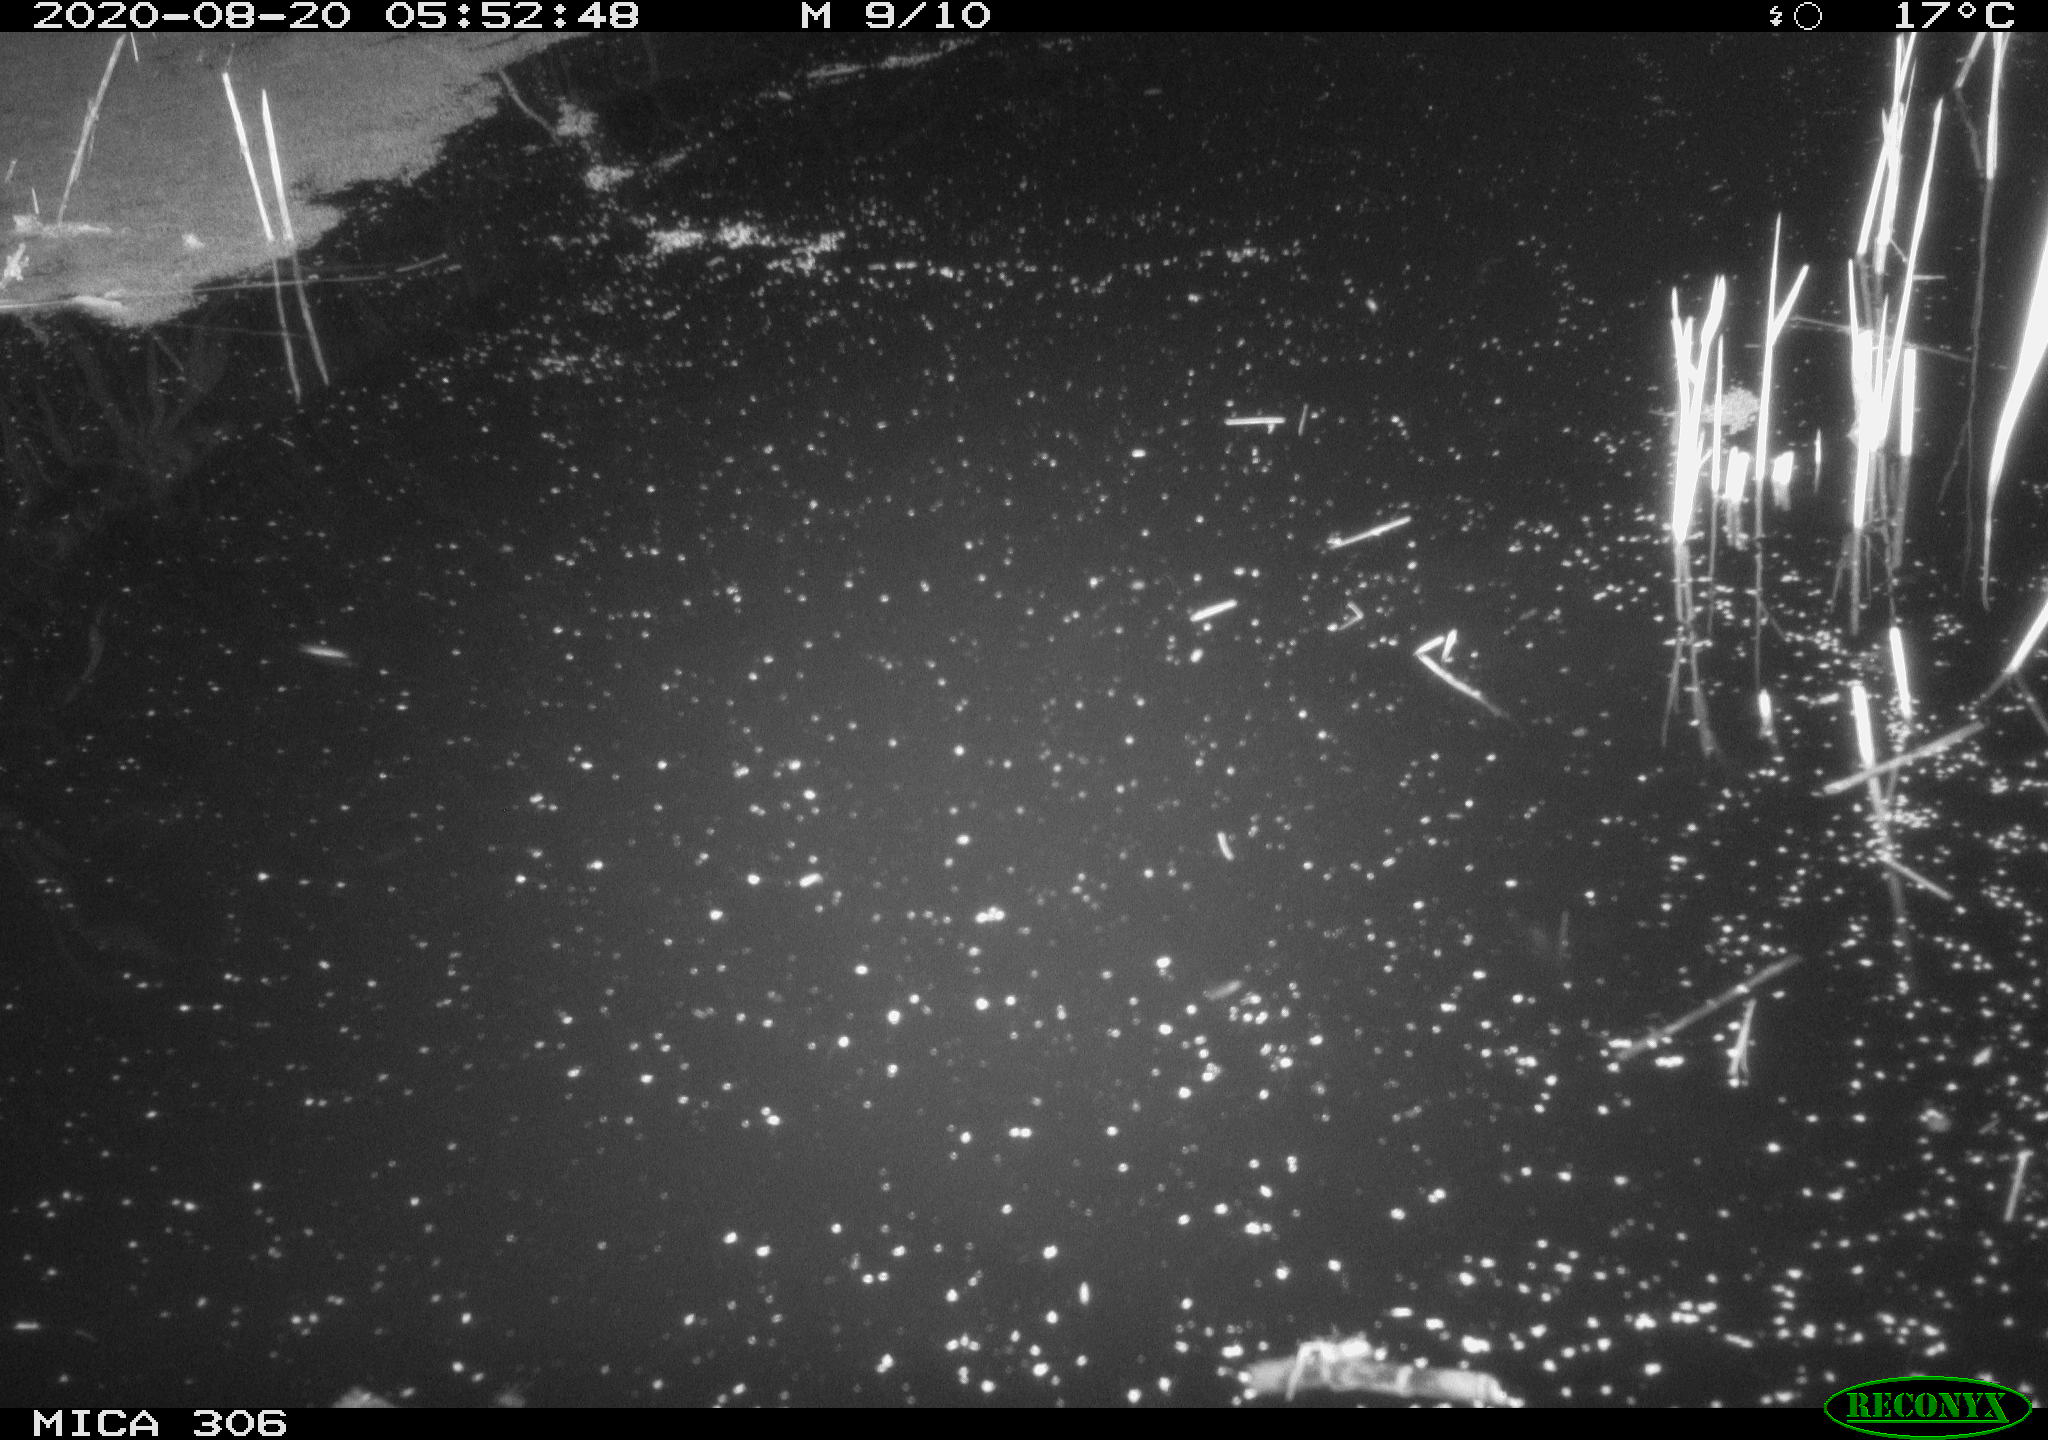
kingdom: Animalia
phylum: Chordata
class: Mammalia
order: Rodentia
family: Muridae
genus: Rattus
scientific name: Rattus norvegicus
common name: Brown rat
